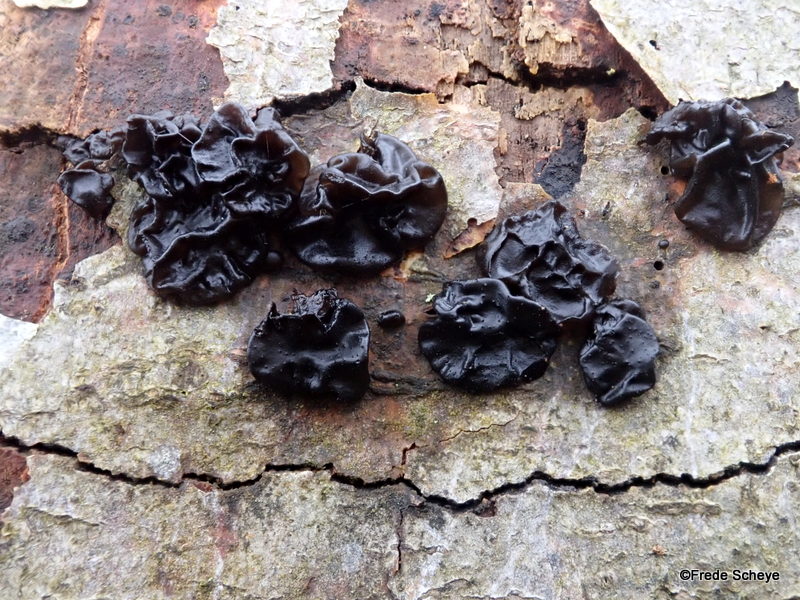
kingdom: Fungi
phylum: Basidiomycota
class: Agaricomycetes
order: Auriculariales
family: Auriculariaceae
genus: Exidia
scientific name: Exidia nigricans
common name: almindelig bævretop
